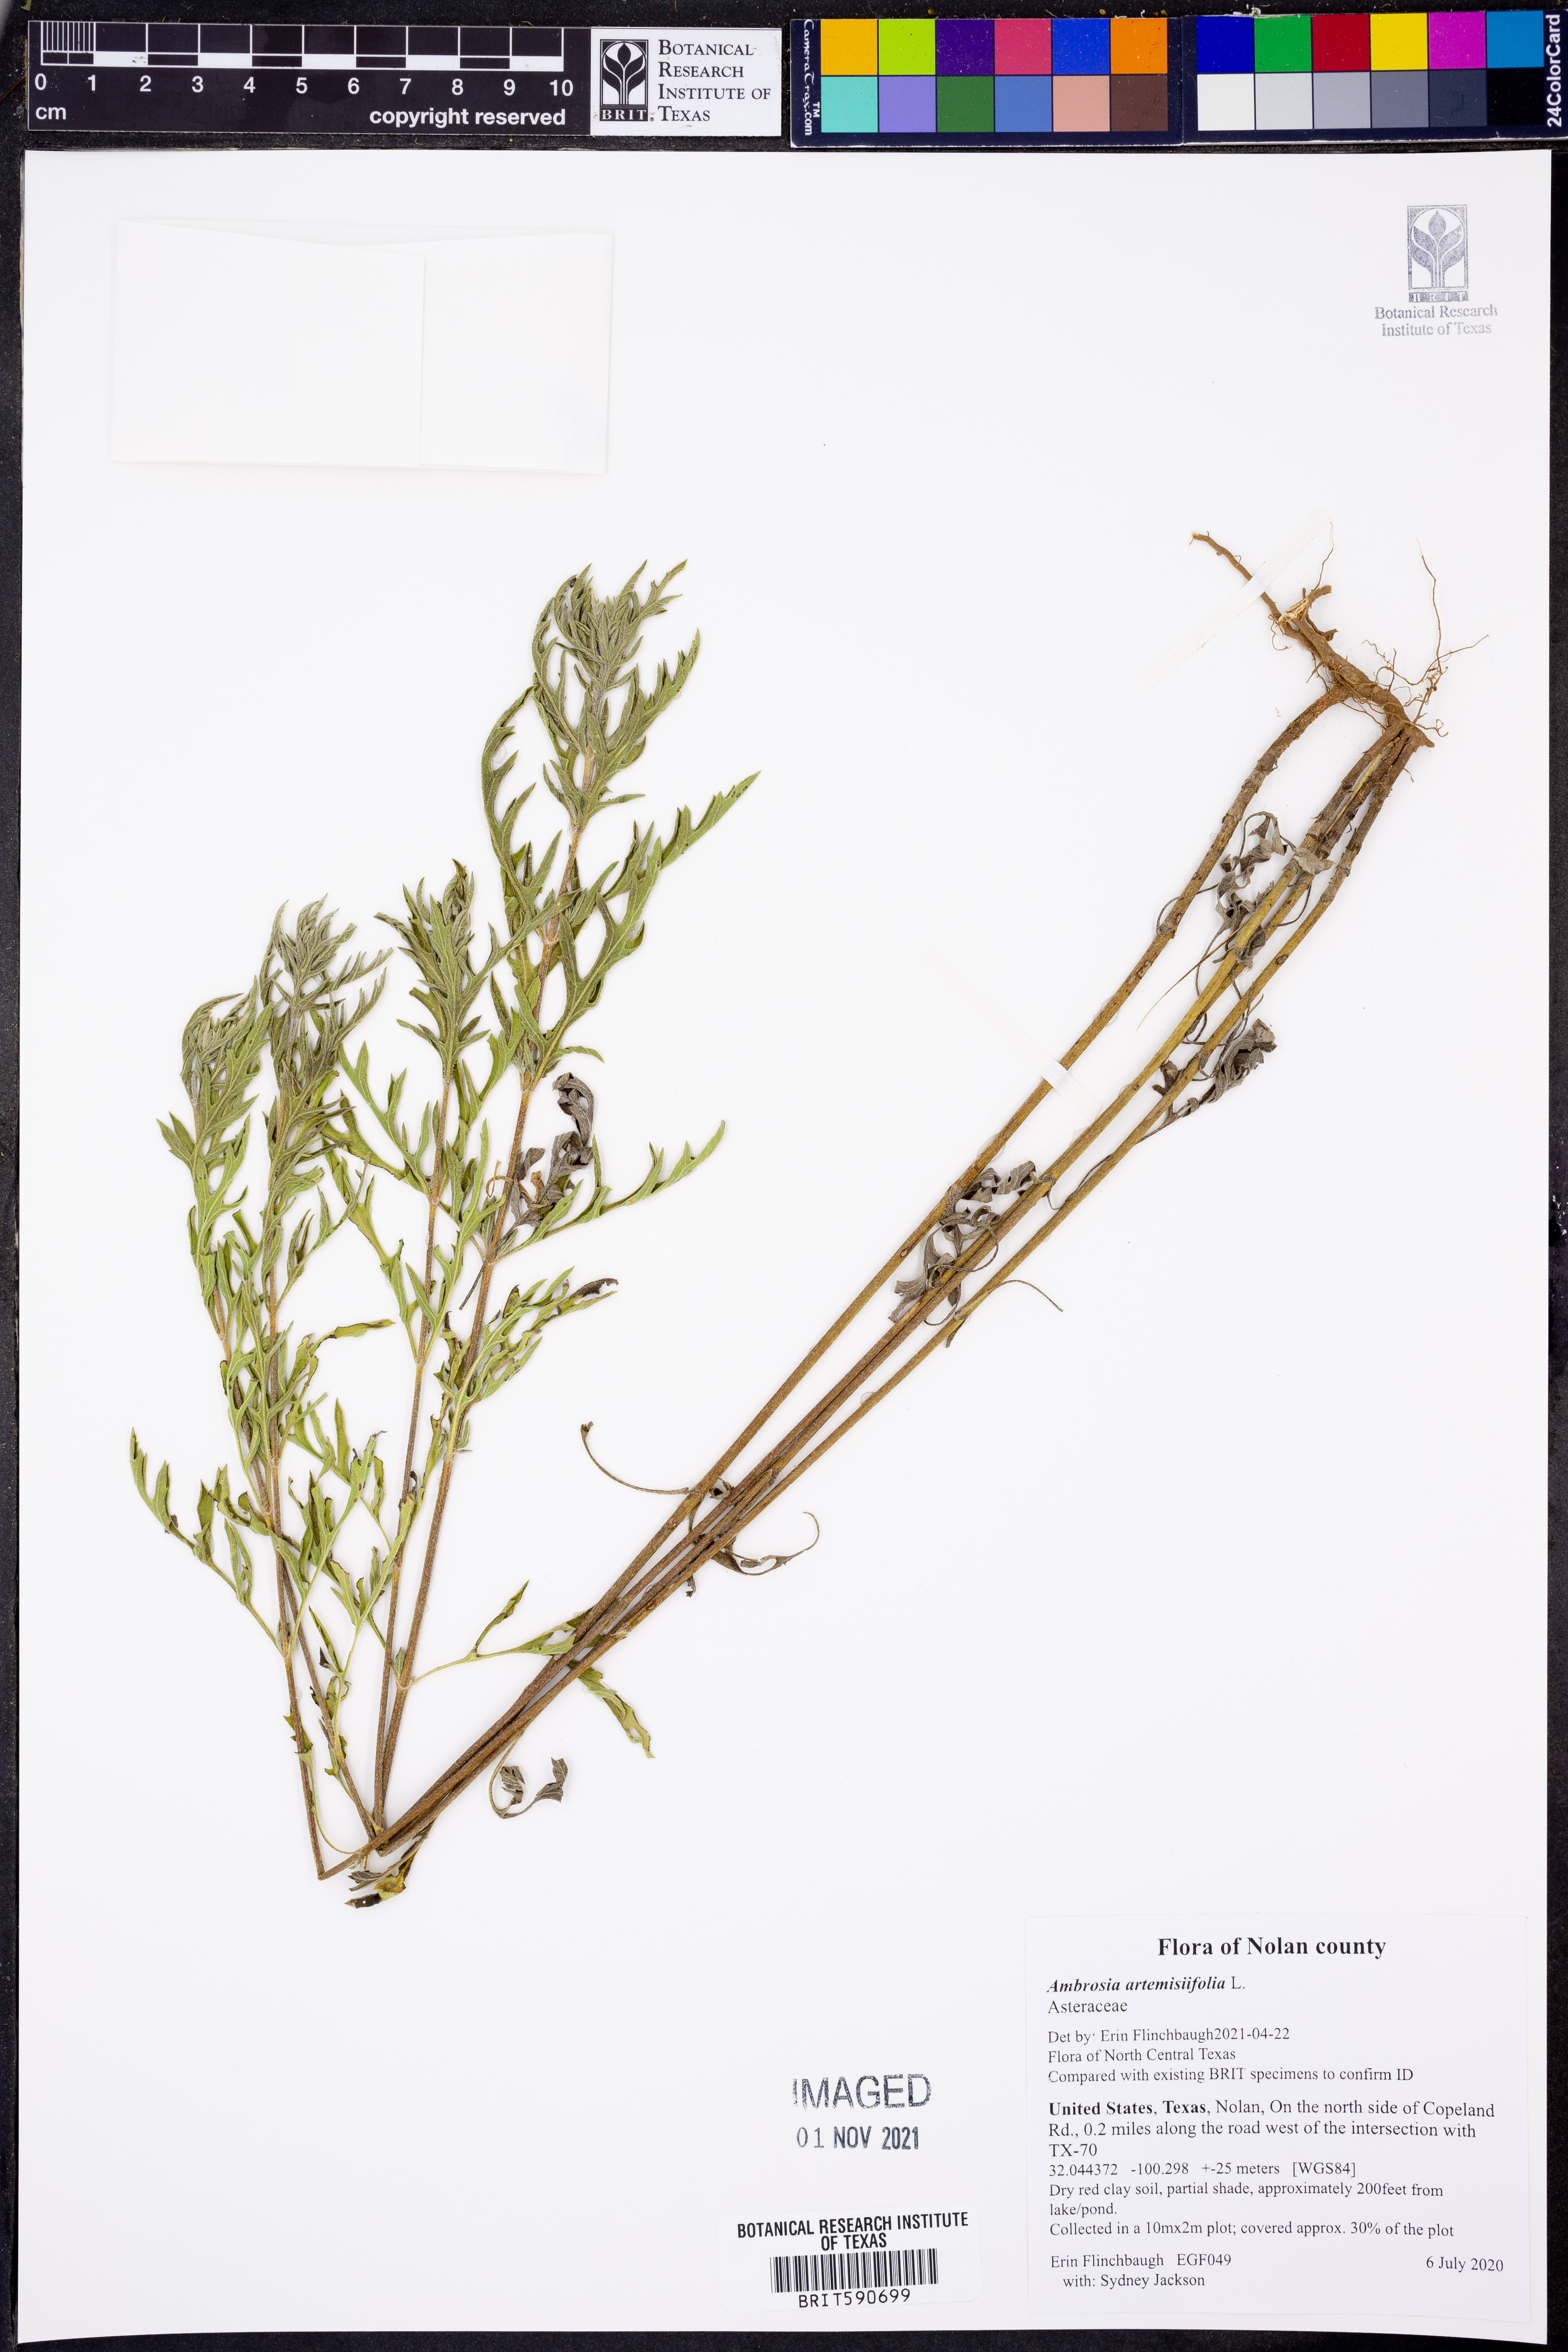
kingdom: Plantae
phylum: Tracheophyta
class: Magnoliopsida
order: Asterales
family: Asteraceae
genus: Ambrosia
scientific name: Ambrosia artemisiifolia
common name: Annual ragweed
